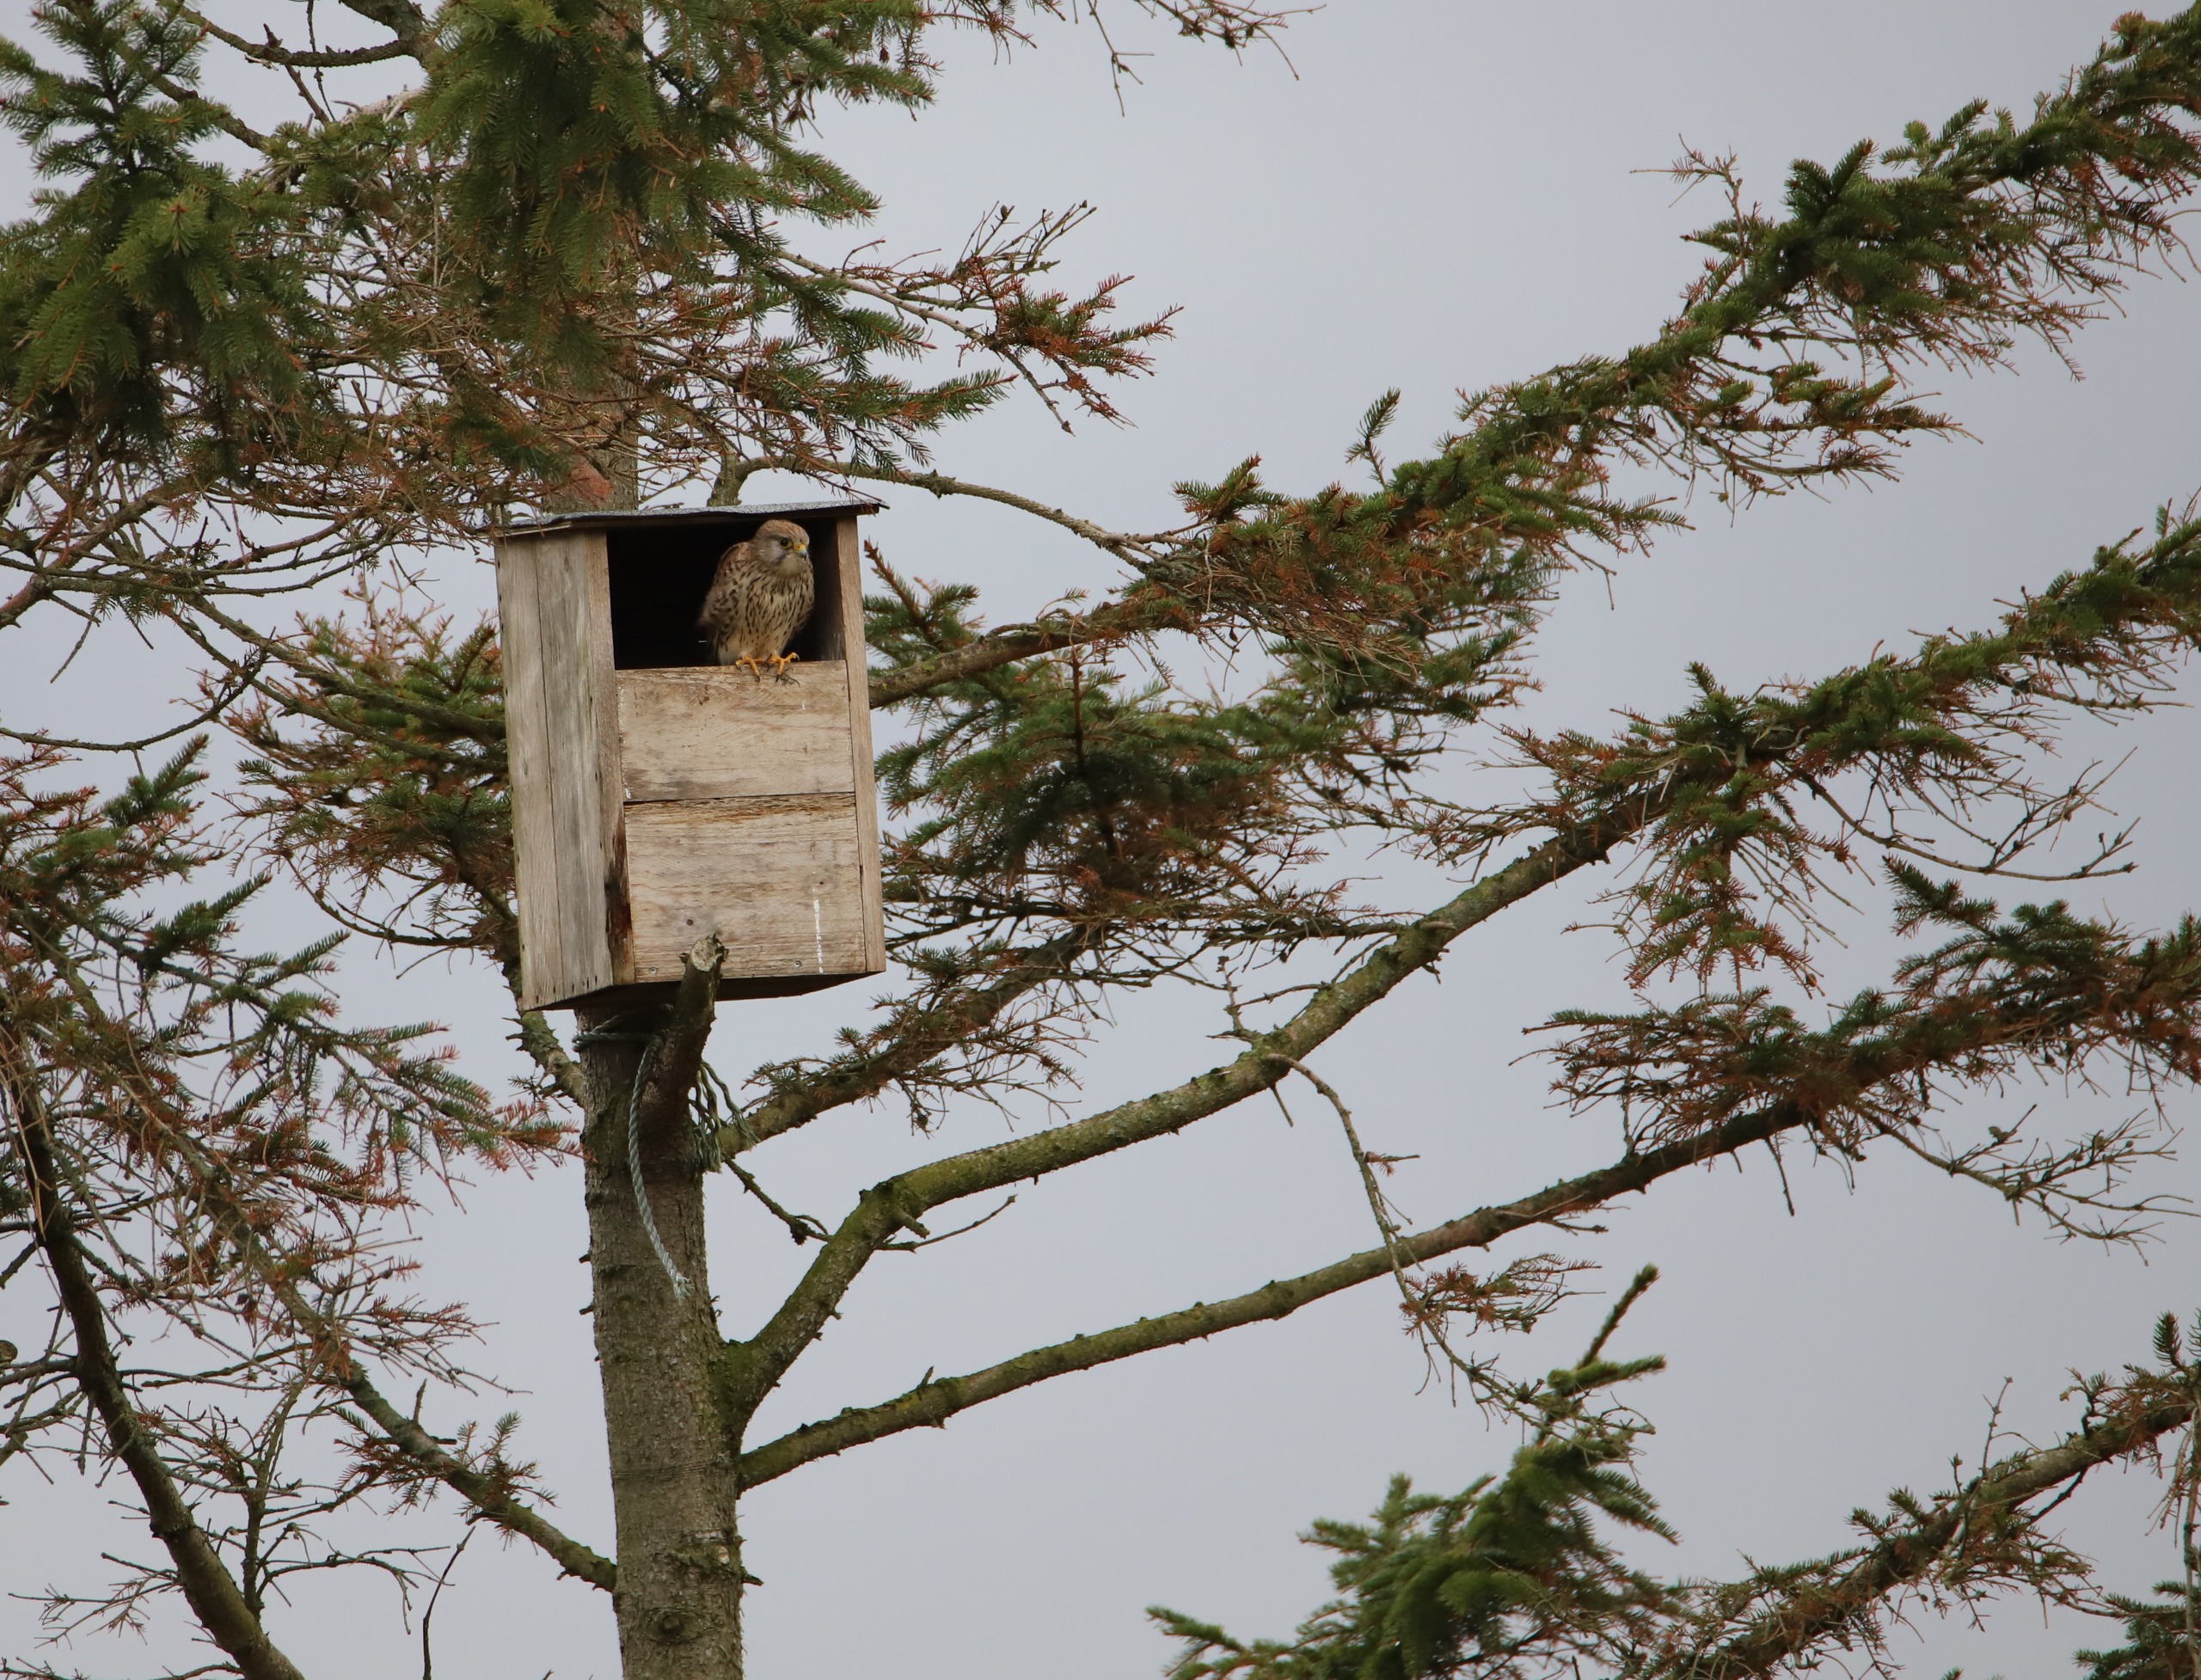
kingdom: Animalia
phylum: Chordata
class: Aves
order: Falconiformes
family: Falconidae
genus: Falco
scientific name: Falco tinnunculus
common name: Tårnfalk
